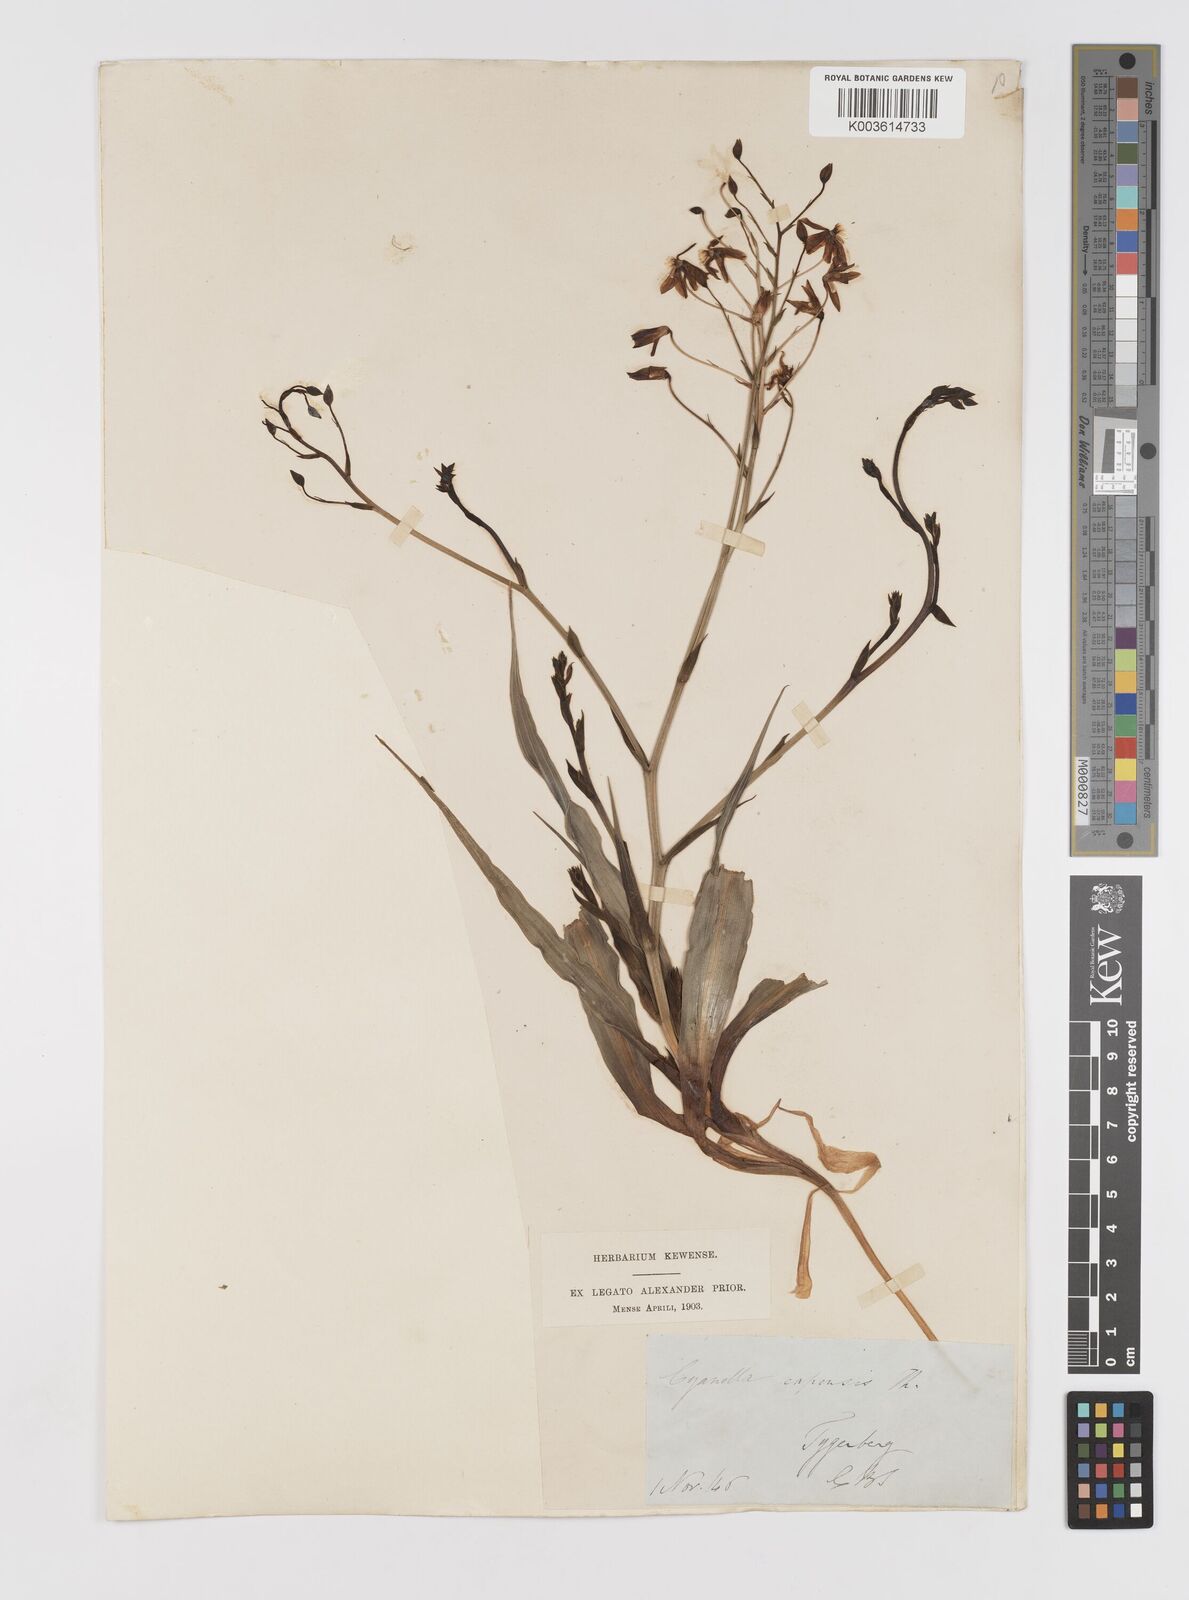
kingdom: Plantae
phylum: Tracheophyta
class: Liliopsida
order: Asparagales
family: Tecophilaeaceae
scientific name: Tecophilaeaceae
